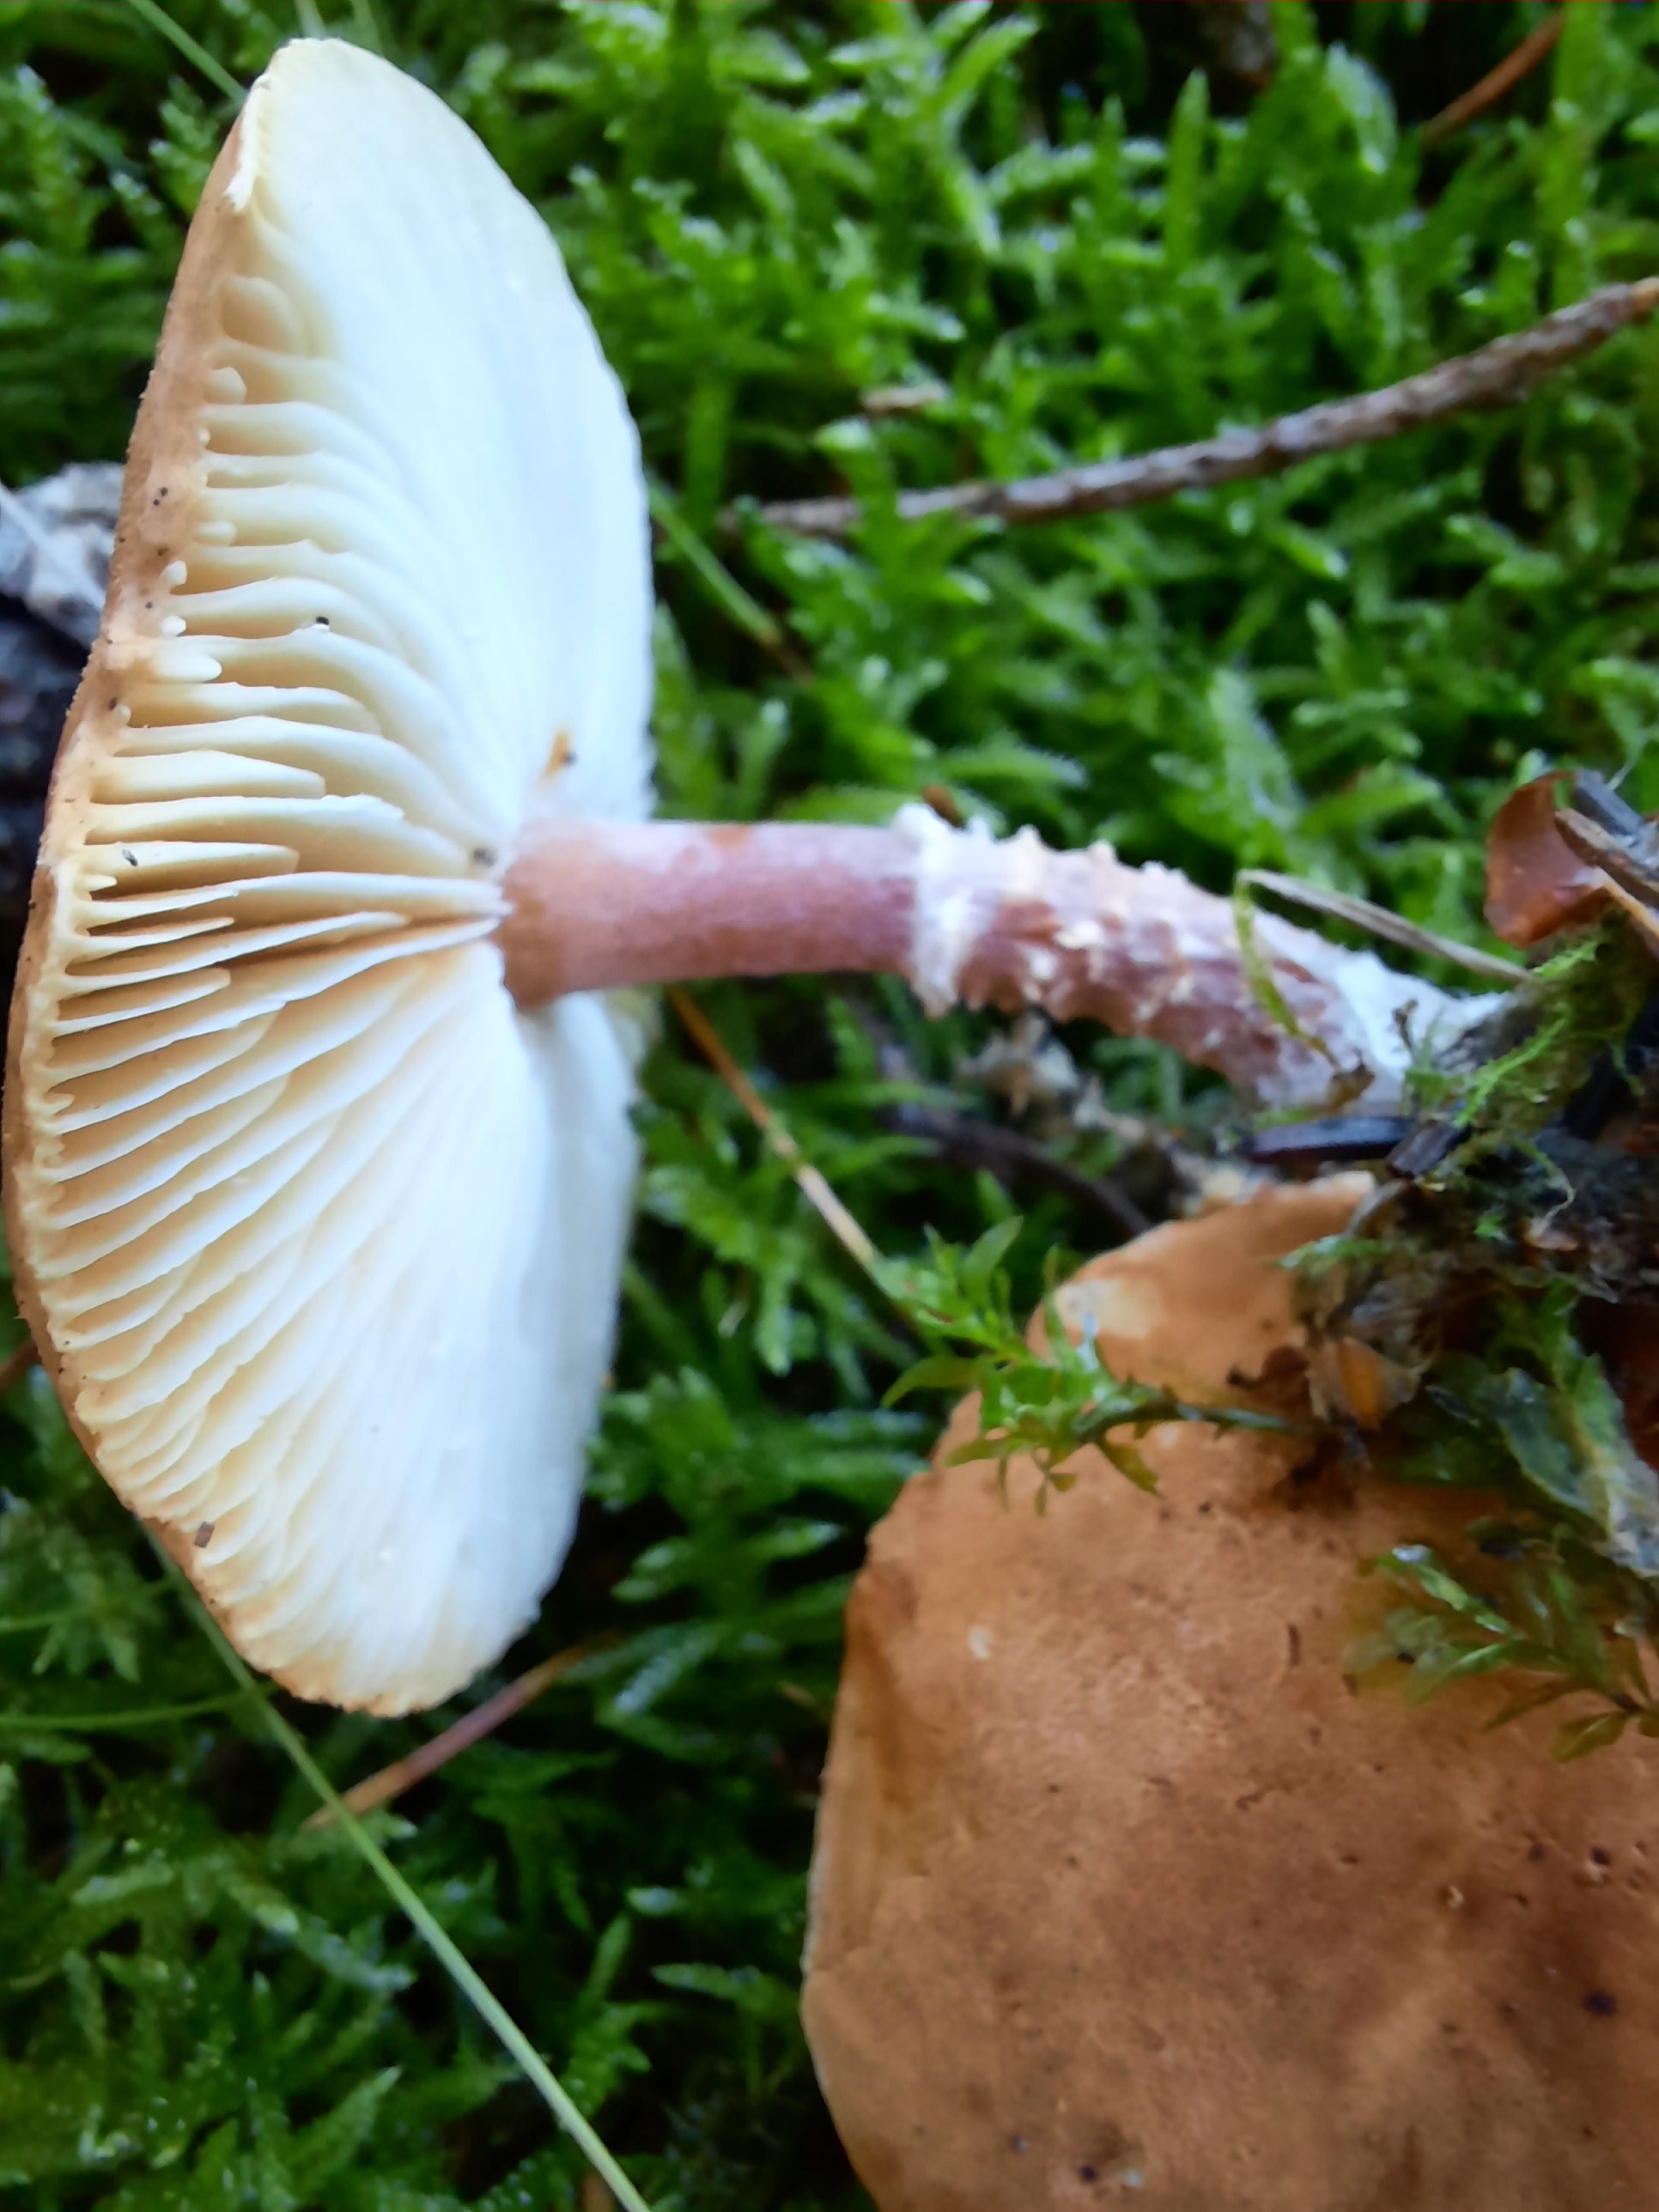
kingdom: Fungi
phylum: Basidiomycota
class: Agaricomycetes
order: Agaricales
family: Agaricaceae
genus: Cystodermella
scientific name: Cystodermella
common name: grynhat
